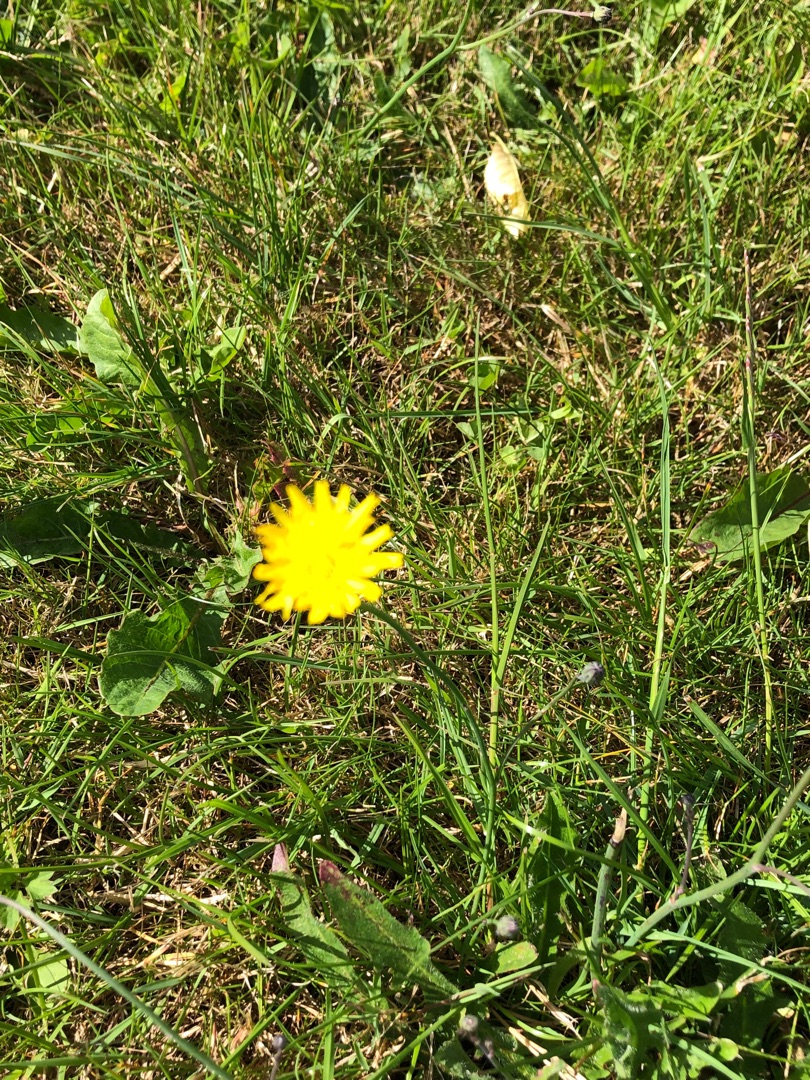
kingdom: Plantae
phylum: Tracheophyta
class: Magnoliopsida
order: Asterales
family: Asteraceae
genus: Hypochaeris
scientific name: Hypochaeris radicata
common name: Almindelig kongepen
